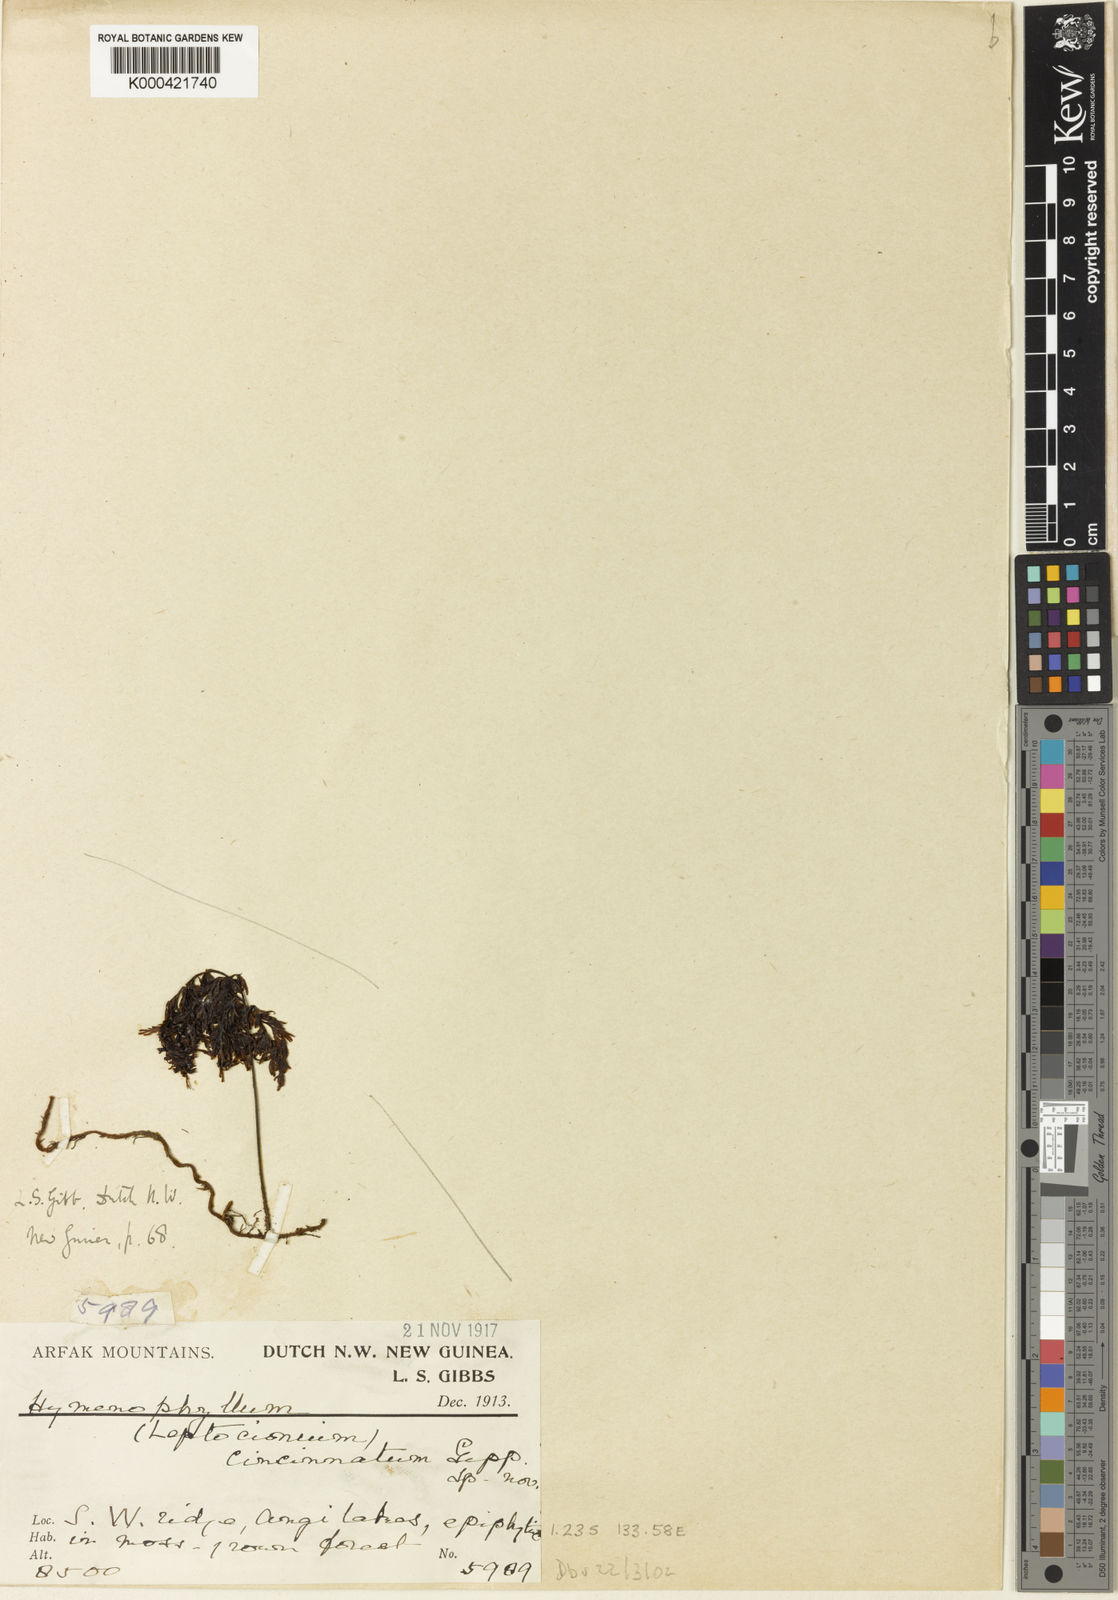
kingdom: Plantae
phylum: Tracheophyta
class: Polypodiopsida
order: Hymenophyllales
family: Hymenophyllaceae
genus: Hymenophyllum
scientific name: Hymenophyllum rubellum
